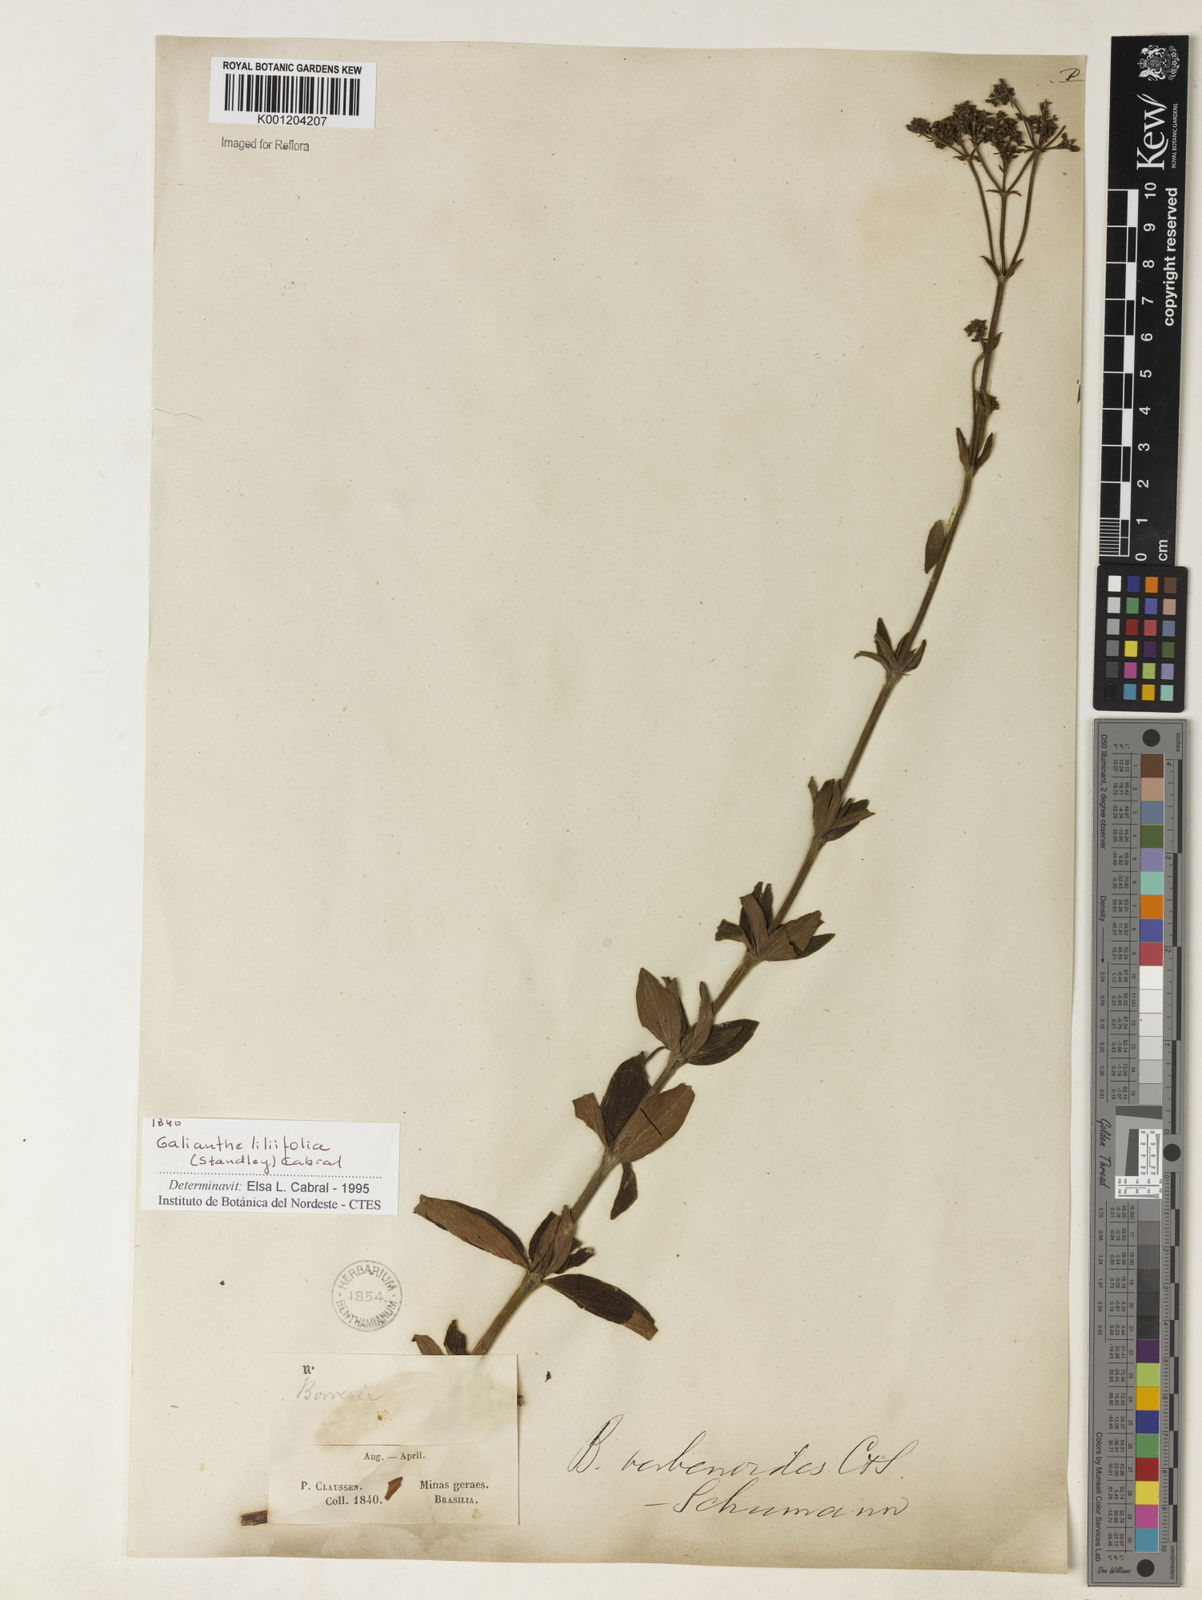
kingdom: Plantae
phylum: Tracheophyta
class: Magnoliopsida
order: Gentianales
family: Rubiaceae
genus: Galianthe
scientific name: Galianthe liliifolia
